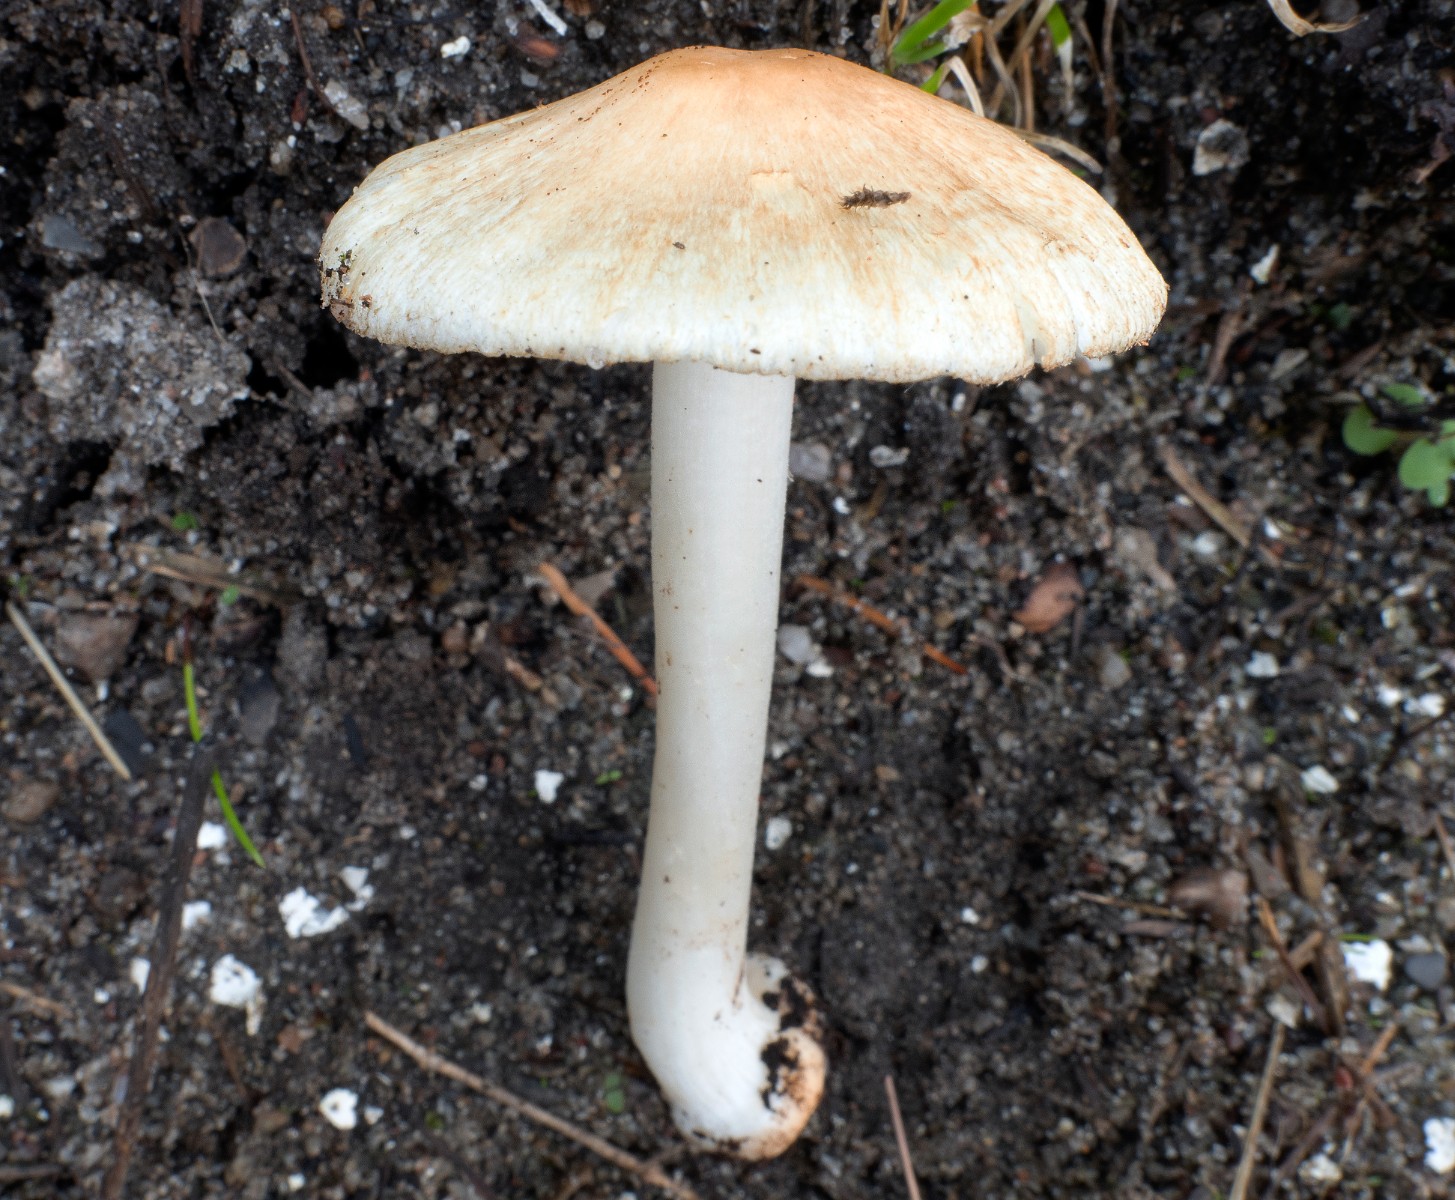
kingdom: Fungi
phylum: Basidiomycota
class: Agaricomycetes
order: Agaricales
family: Inocybaceae
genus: Inocybe
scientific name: Inocybe fibrosoides
